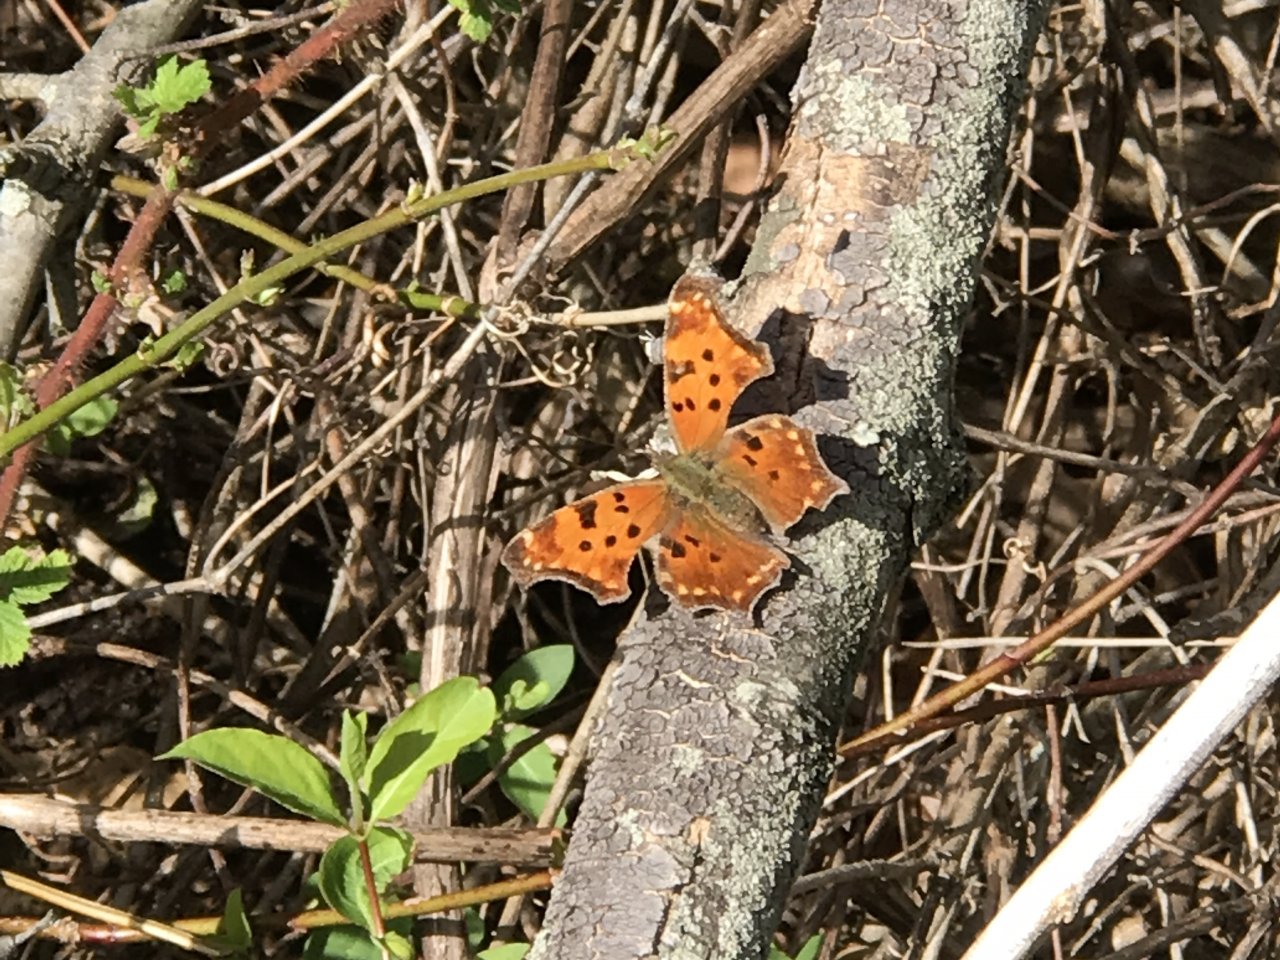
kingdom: Animalia
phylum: Arthropoda
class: Insecta
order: Lepidoptera
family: Nymphalidae
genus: Polygonia
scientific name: Polygonia comma
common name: Eastern Comma
